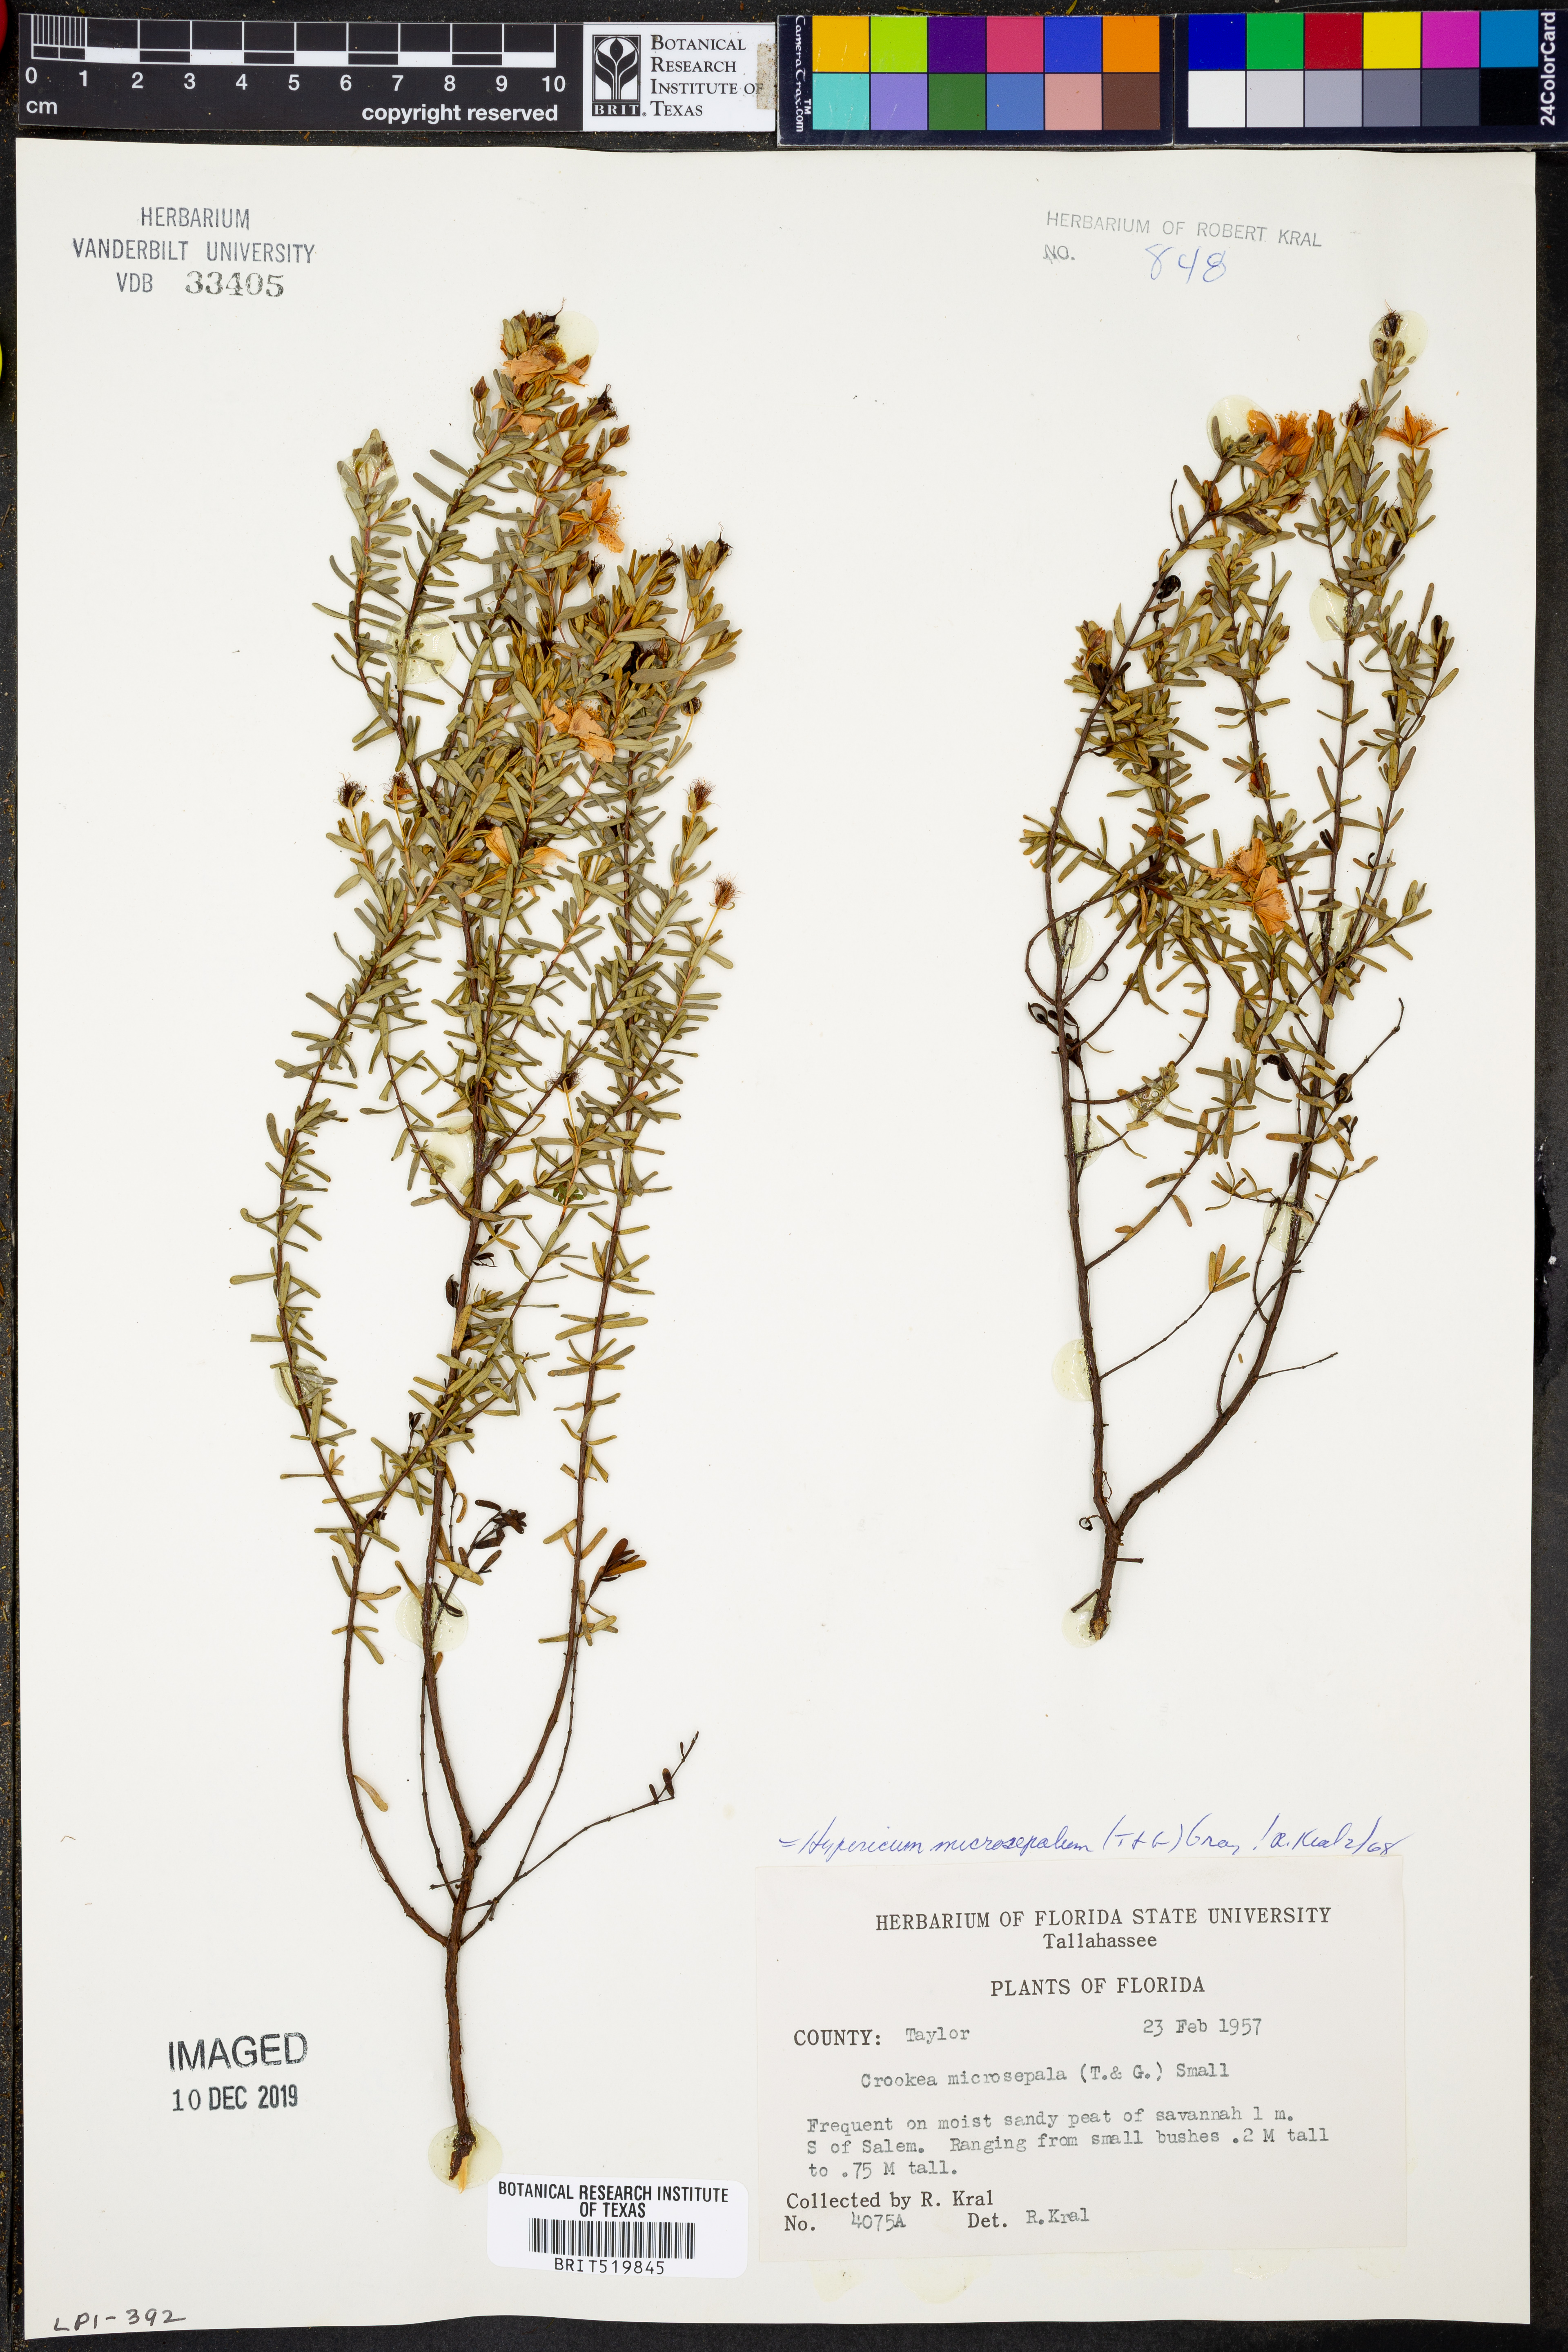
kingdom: Plantae
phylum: Tracheophyta
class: Magnoliopsida
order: Malpighiales
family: Hypericaceae
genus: Hypericum
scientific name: Hypericum microsepalum
